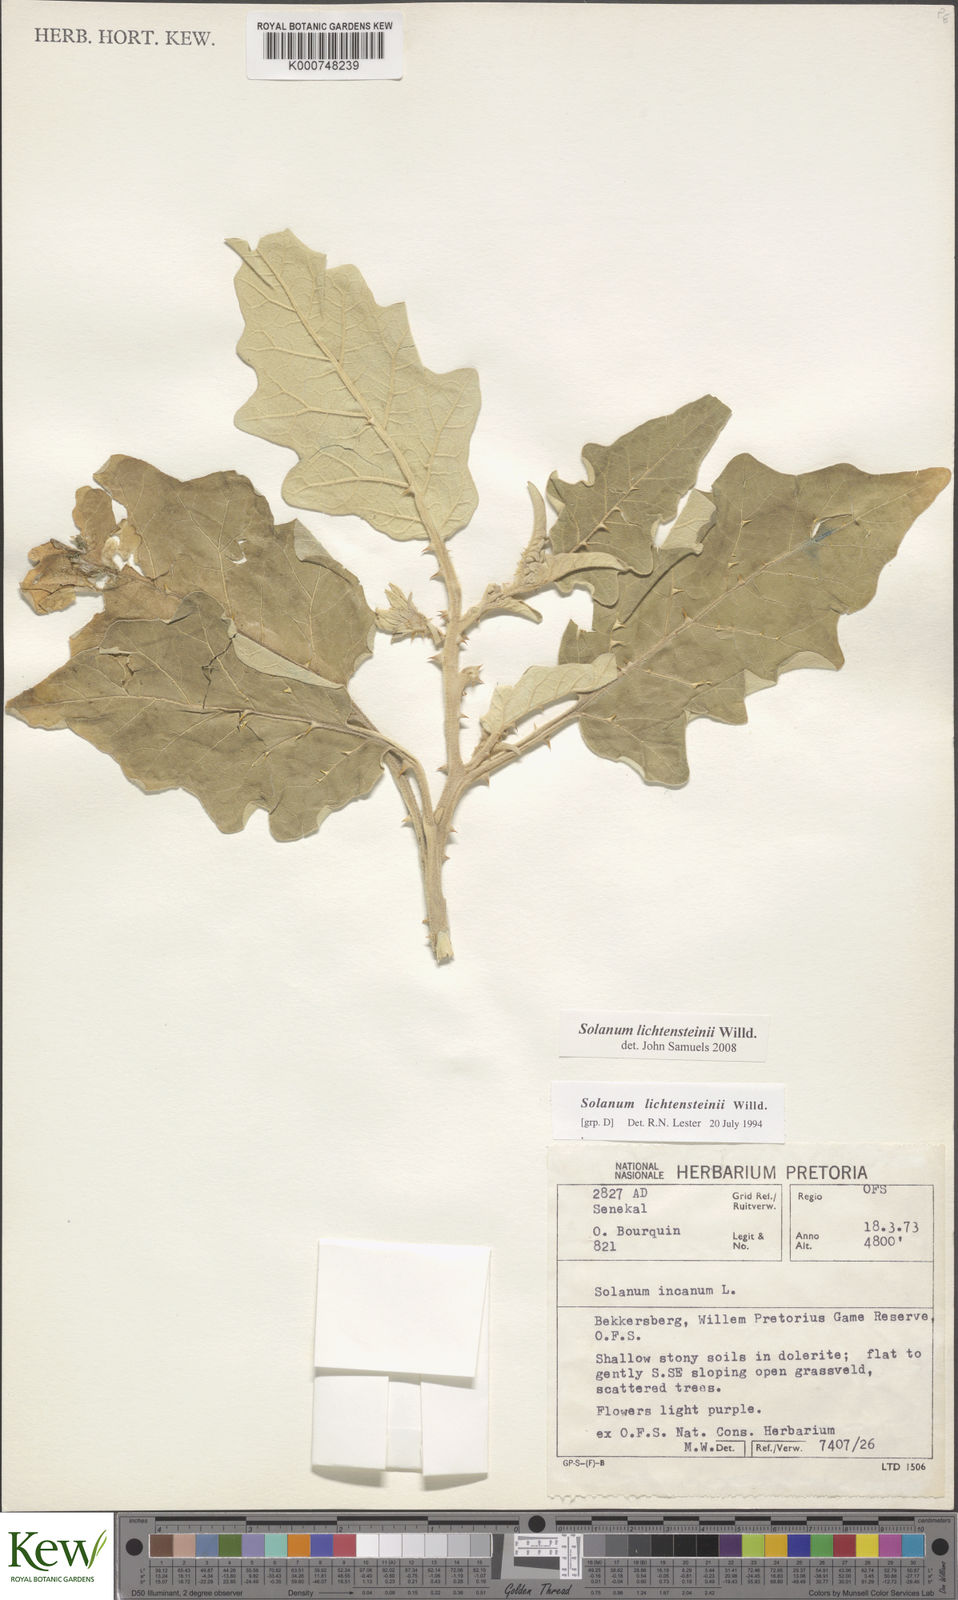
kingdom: Plantae
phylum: Tracheophyta
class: Magnoliopsida
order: Solanales
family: Solanaceae
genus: Solanum
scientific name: Solanum lichtensteinii
